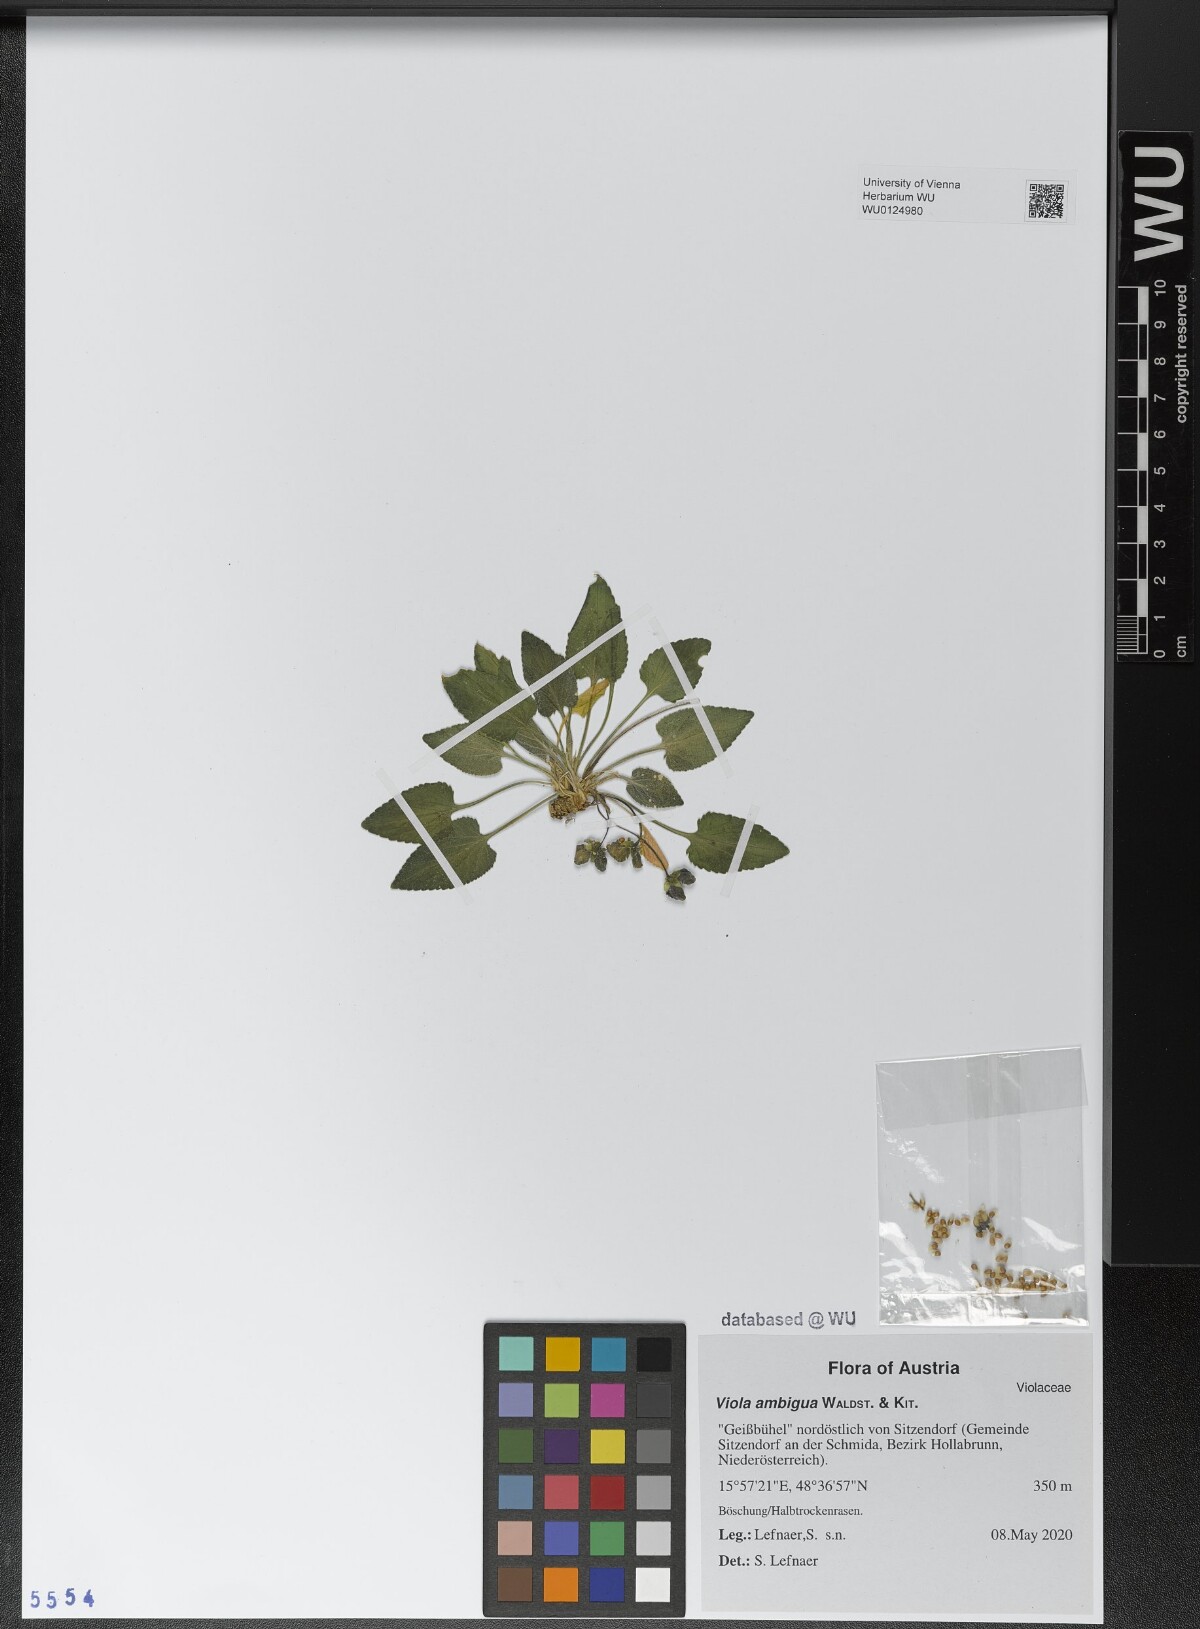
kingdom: Plantae
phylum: Tracheophyta
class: Magnoliopsida
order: Malpighiales
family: Violaceae
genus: Viola
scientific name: Viola ambigua
